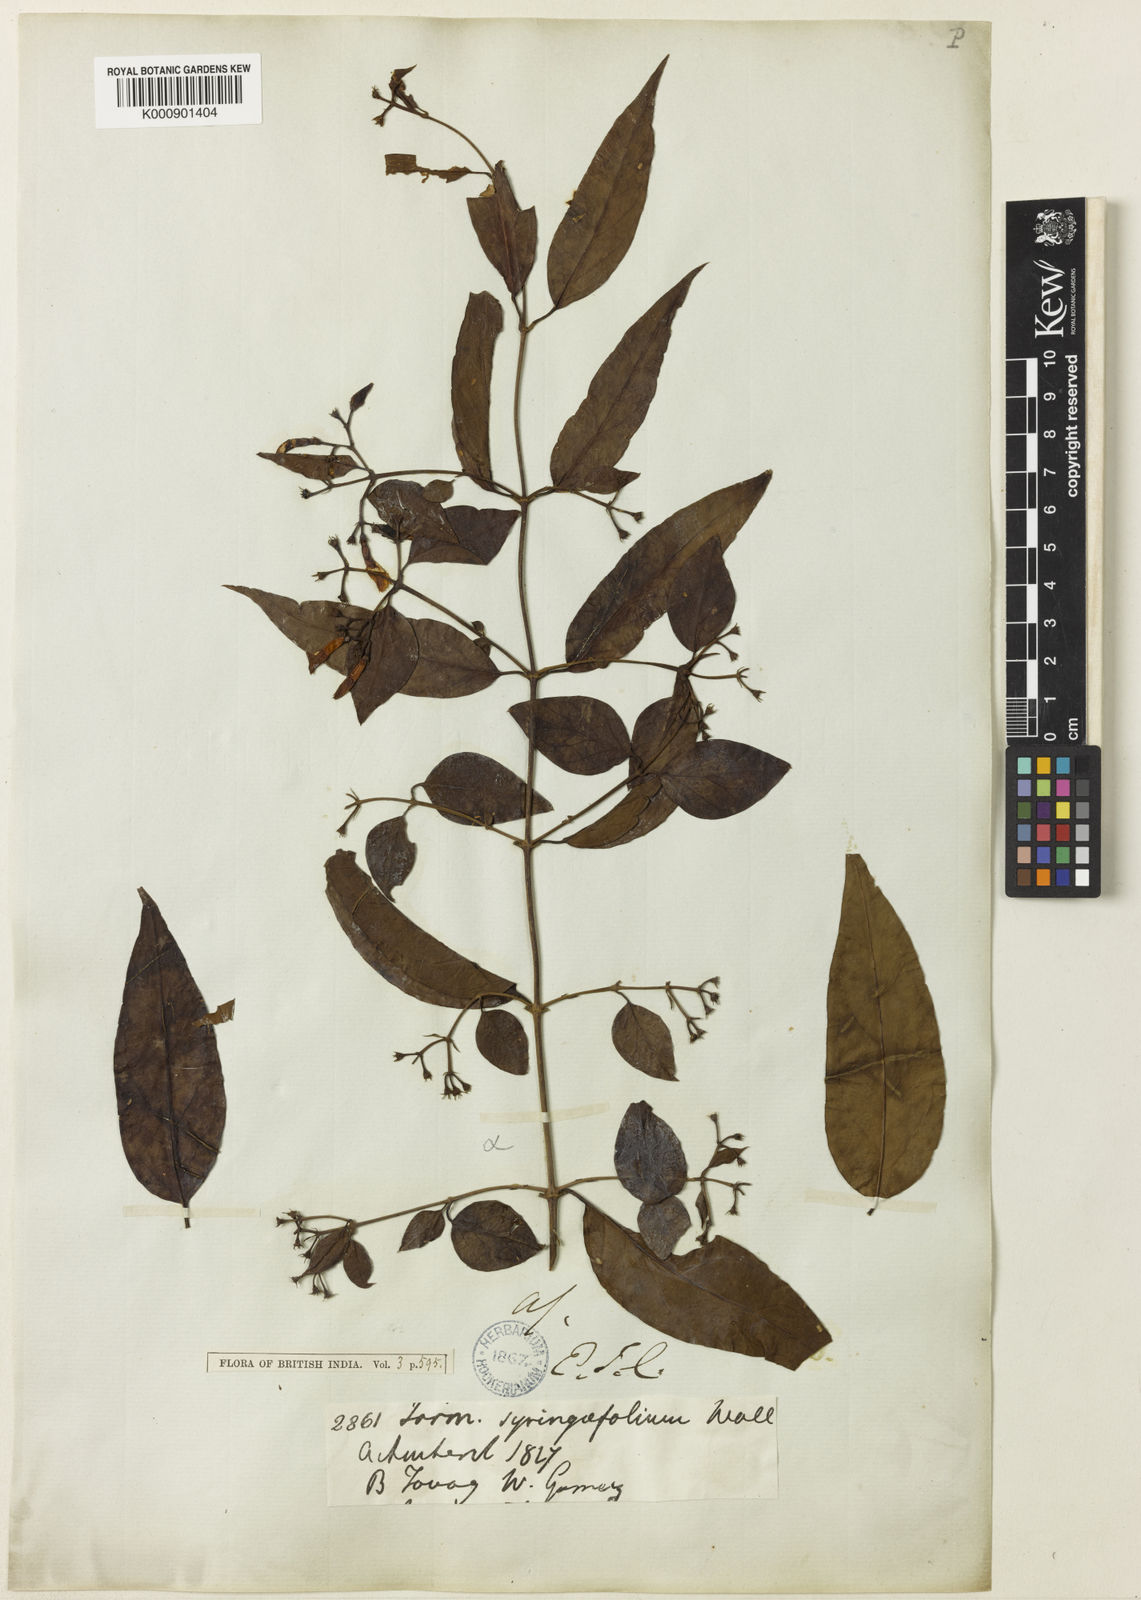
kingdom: Plantae
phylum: Tracheophyta
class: Magnoliopsida
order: Lamiales
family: Oleaceae
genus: Jasminum
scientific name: Jasminum
